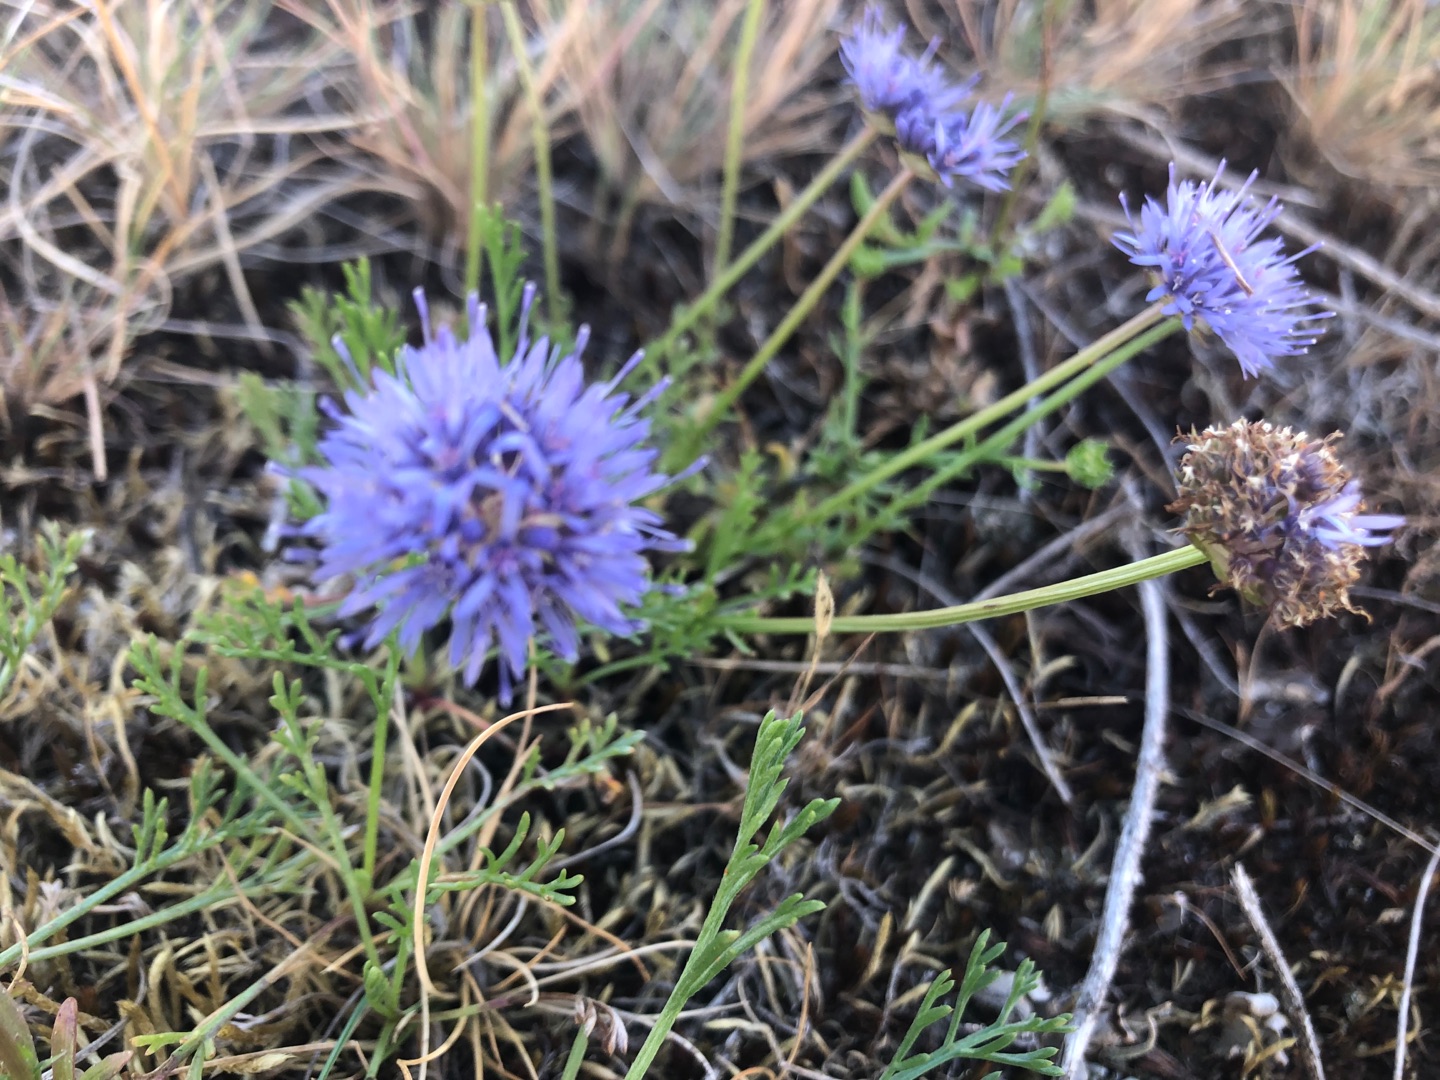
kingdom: Plantae
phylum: Tracheophyta
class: Magnoliopsida
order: Asterales
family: Campanulaceae
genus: Jasione
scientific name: Jasione montana
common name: Blåmunke
